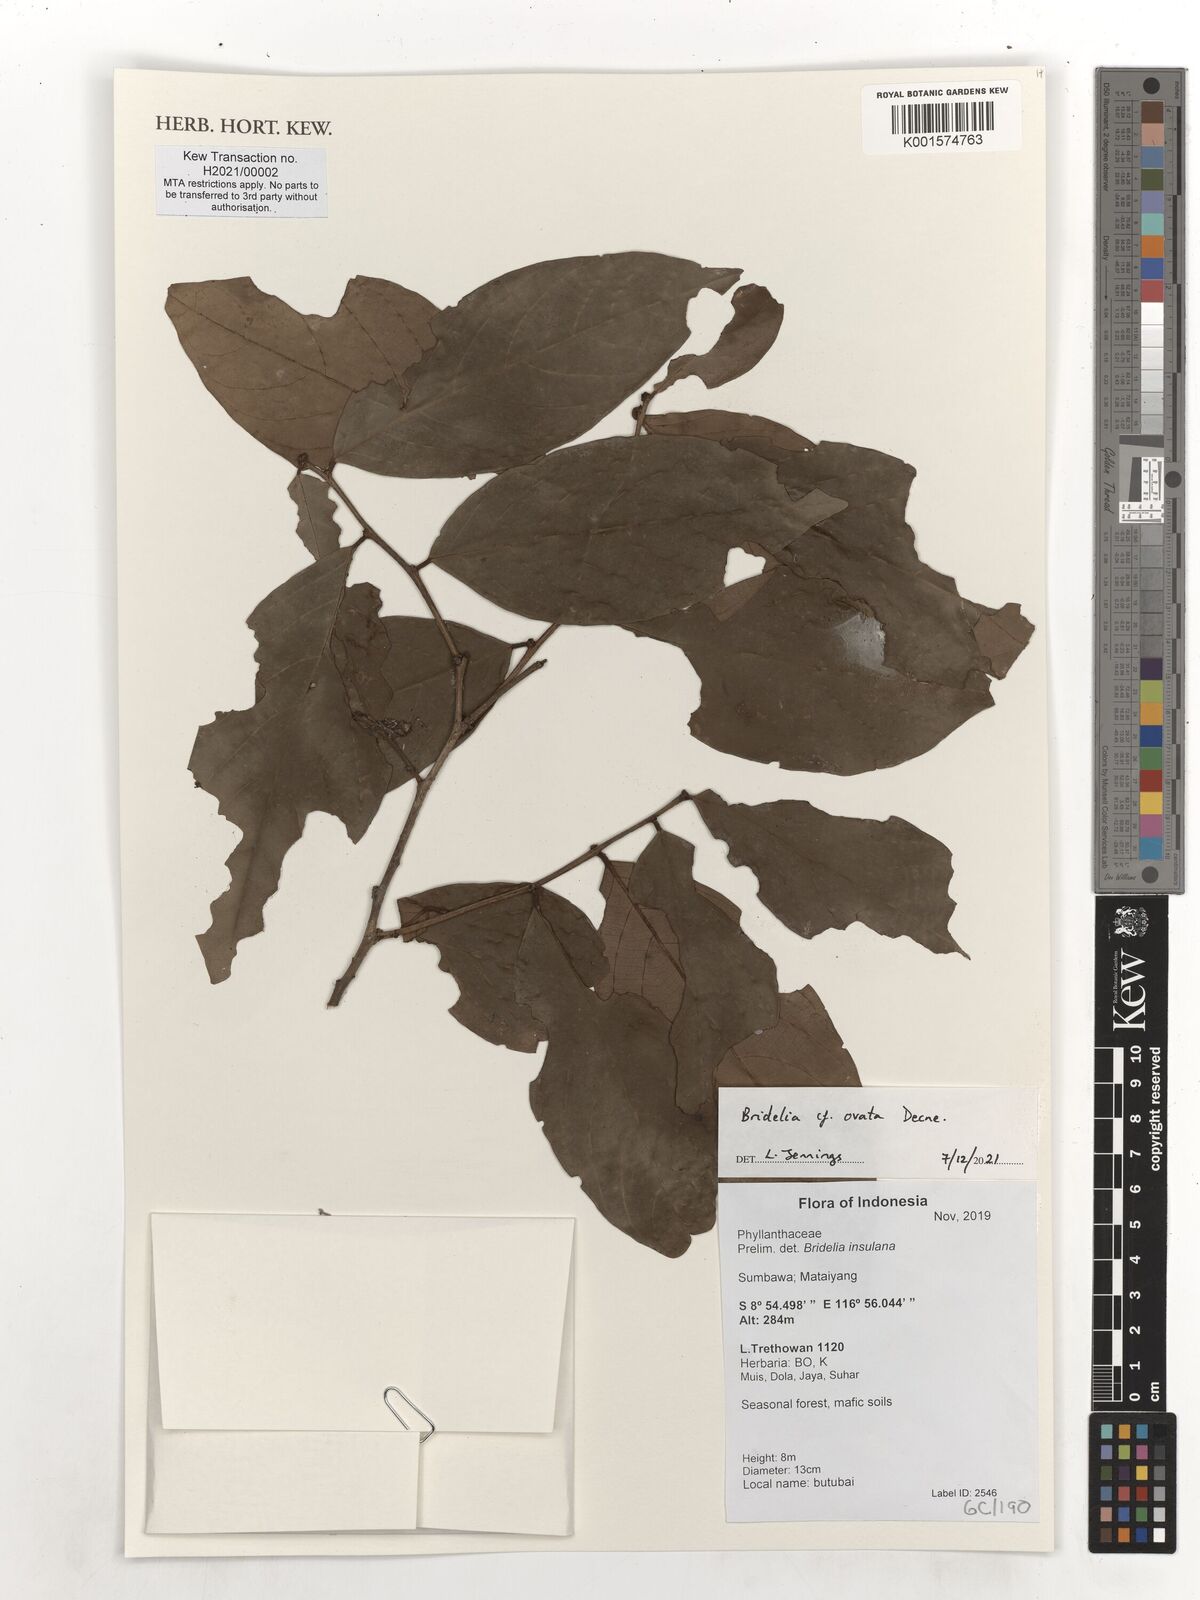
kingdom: Plantae
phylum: Tracheophyta
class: Magnoliopsida
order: Malpighiales
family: Phyllanthaceae
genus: Bridelia
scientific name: Bridelia ovata
